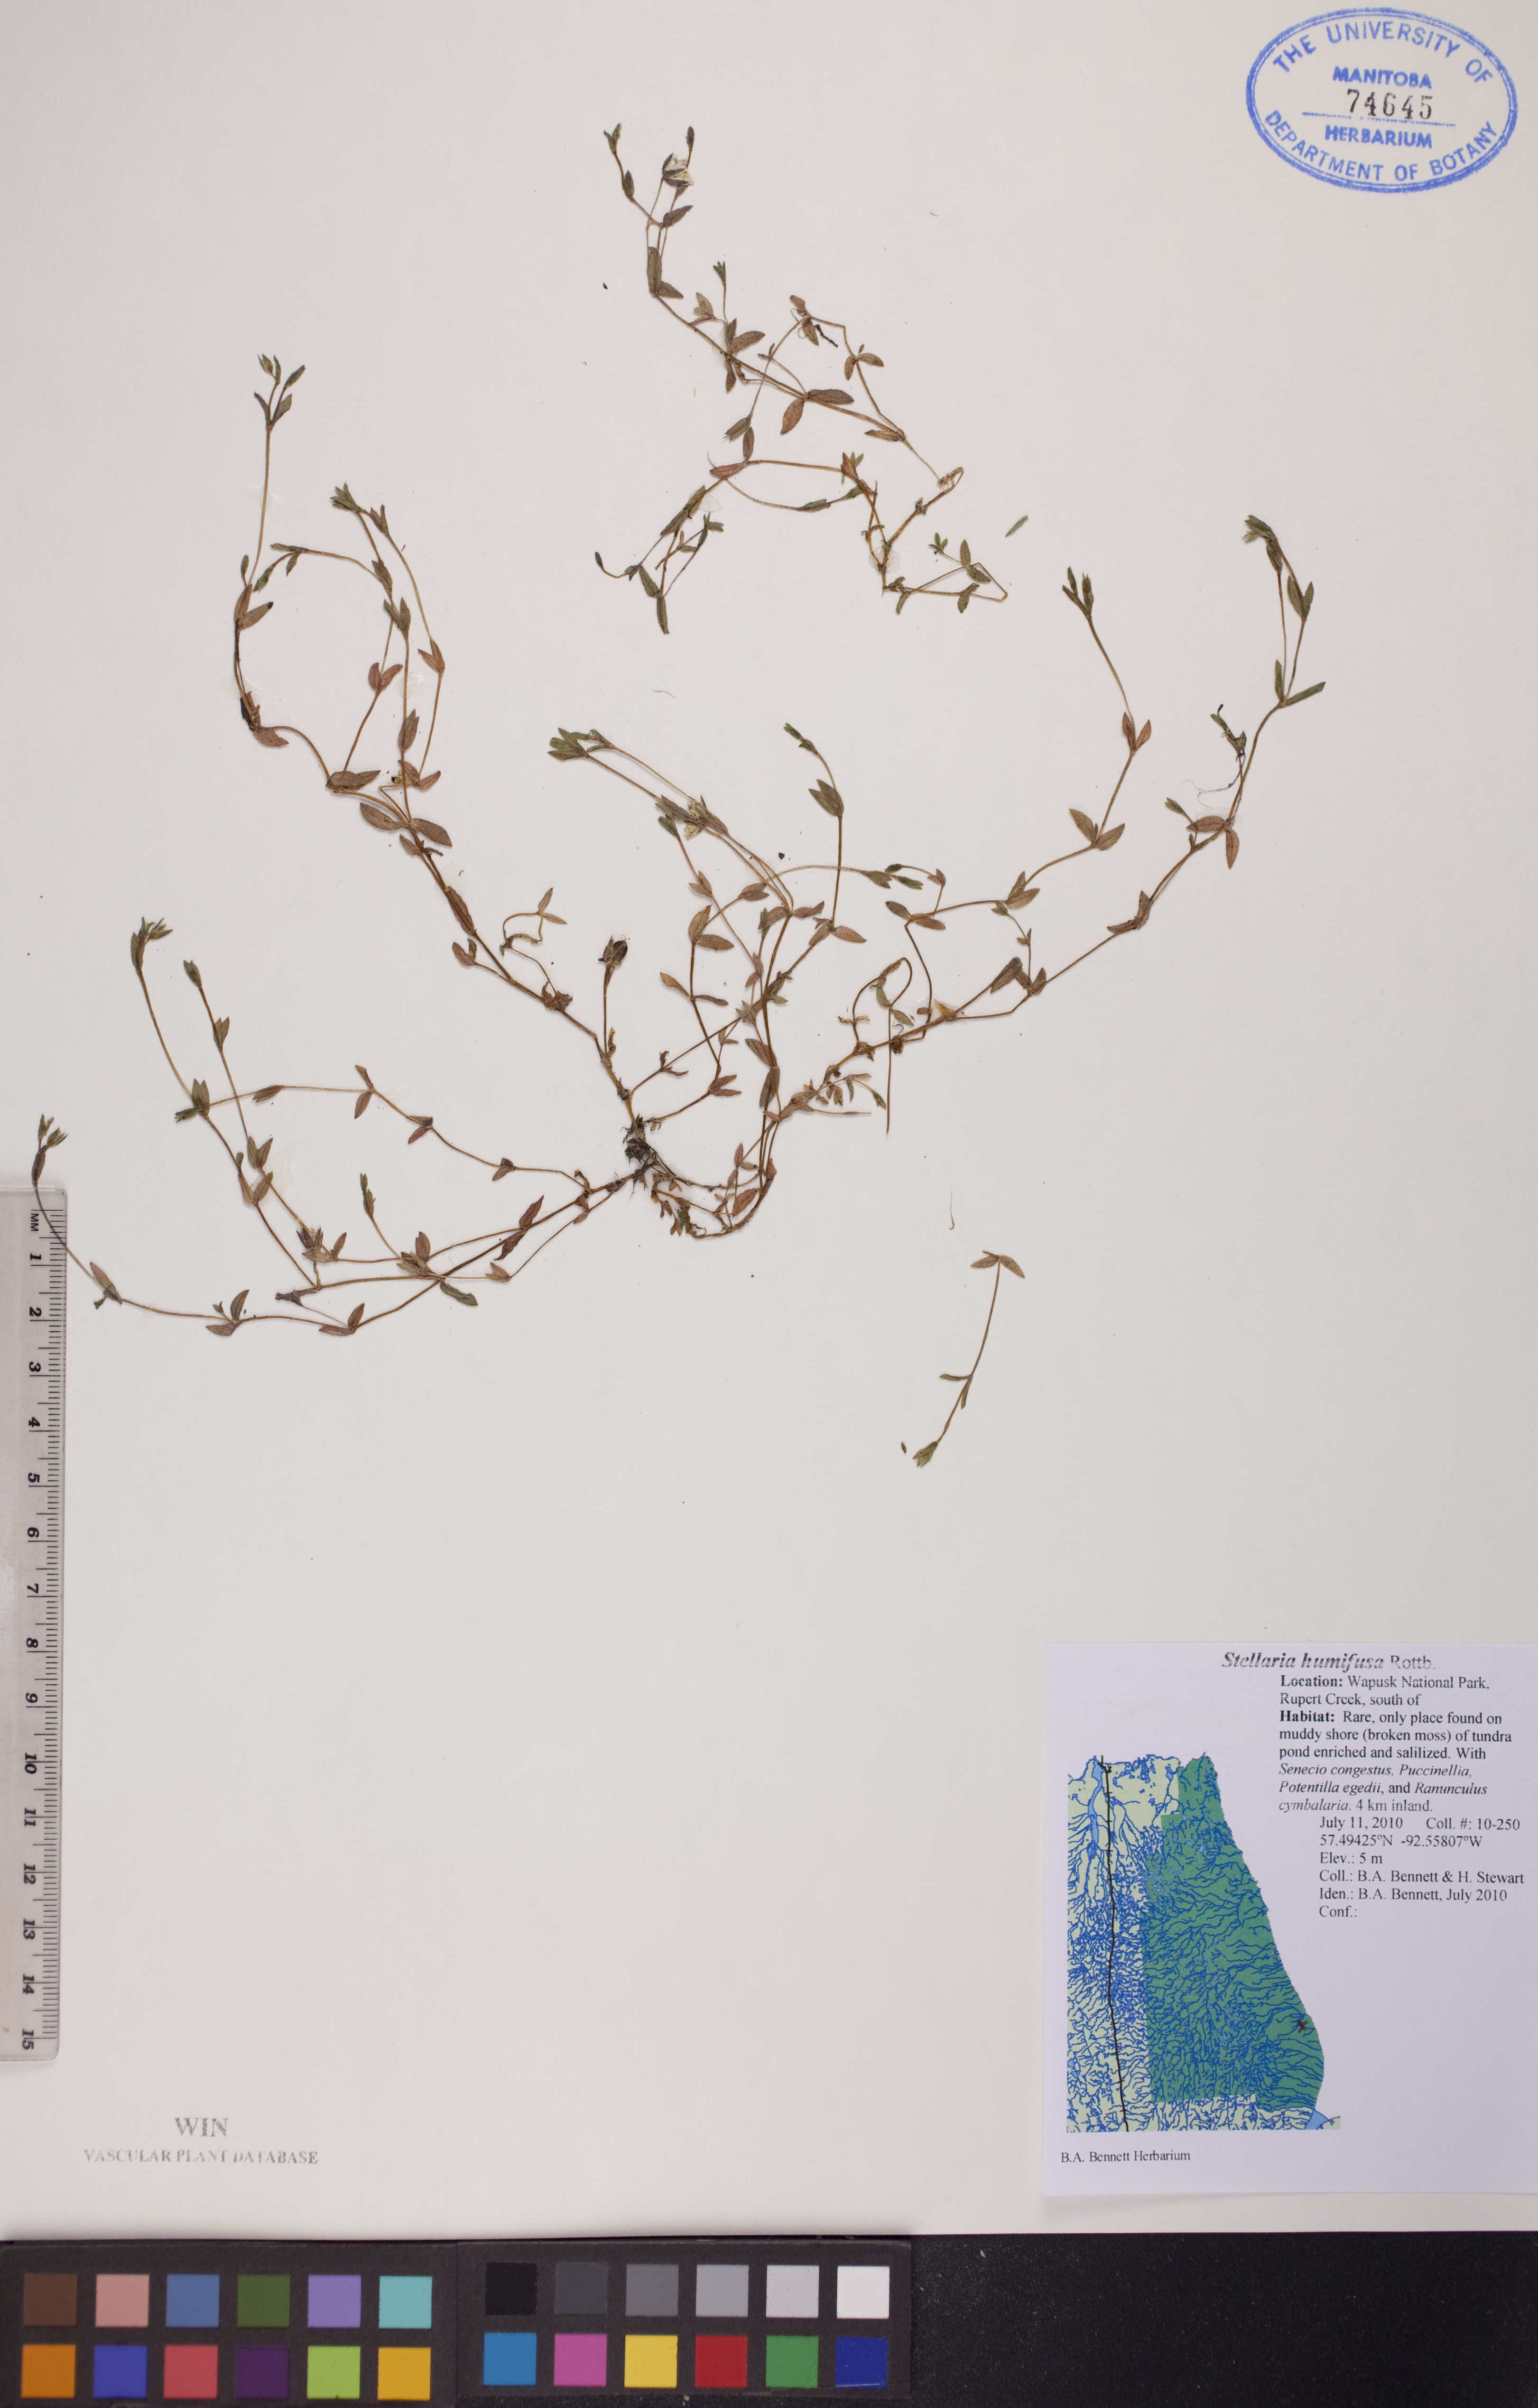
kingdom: Plantae
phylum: Tracheophyta
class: Magnoliopsida
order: Caryophyllales
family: Caryophyllaceae
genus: Stellaria
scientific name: Stellaria humifusa
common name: Creeping starwort
